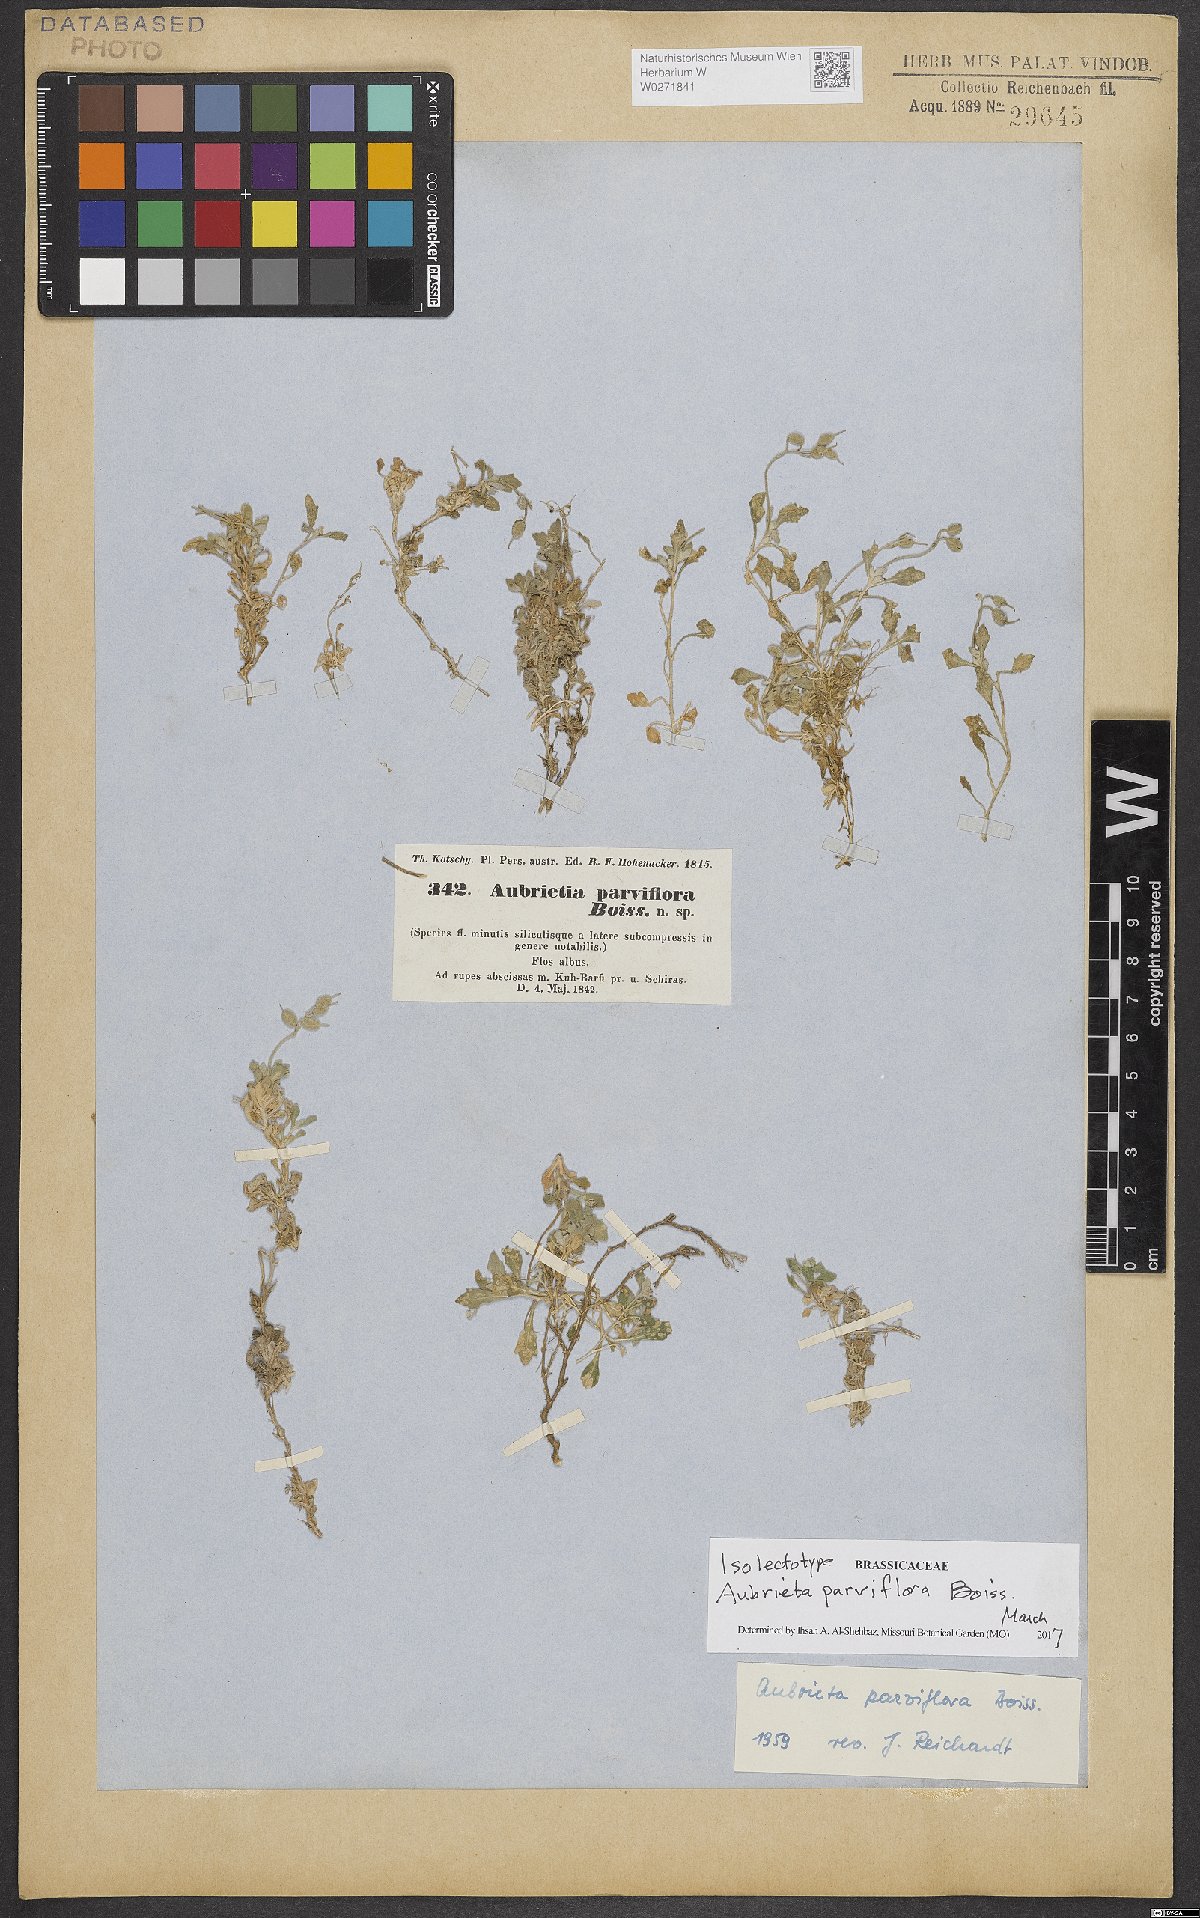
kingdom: Plantae
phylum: Tracheophyta
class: Magnoliopsida
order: Brassicales
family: Brassicaceae
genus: Aubrieta
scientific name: Aubrieta parviflora
